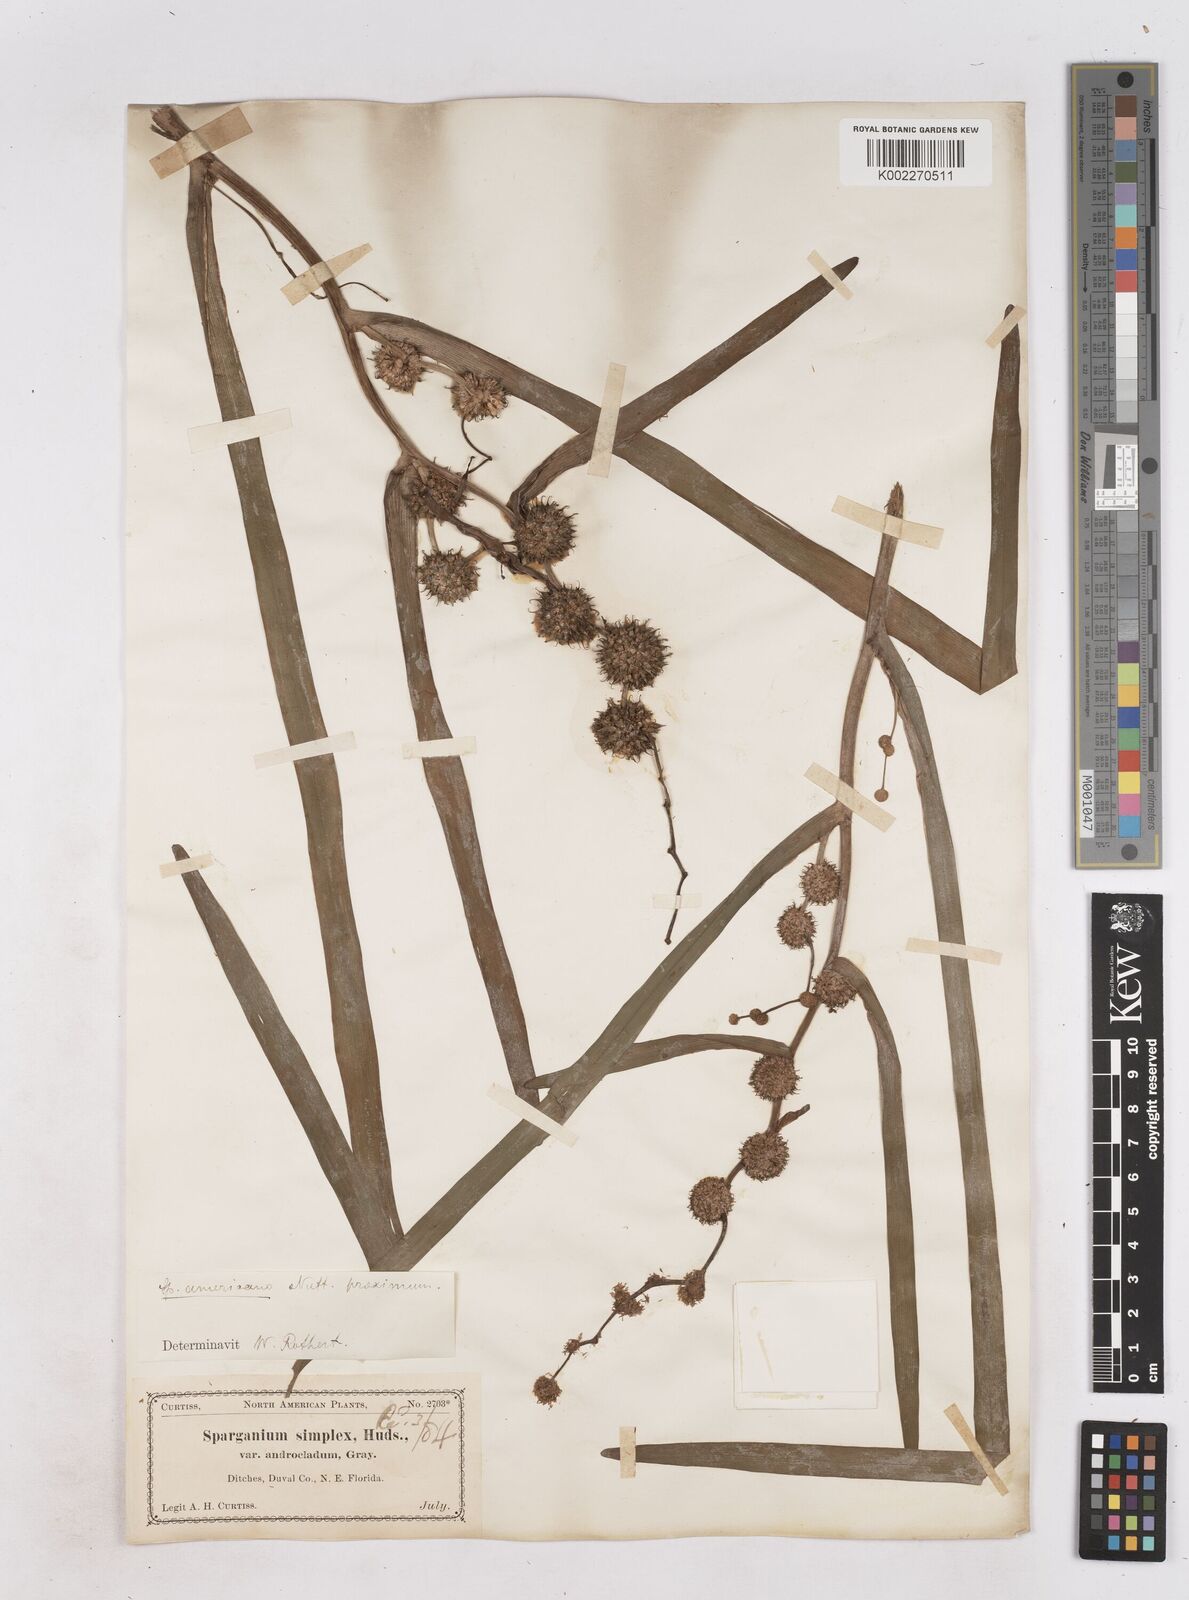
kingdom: Plantae
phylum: Tracheophyta
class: Liliopsida
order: Poales
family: Typhaceae
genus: Sparganium
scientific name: Sparganium americanum
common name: American burreed
